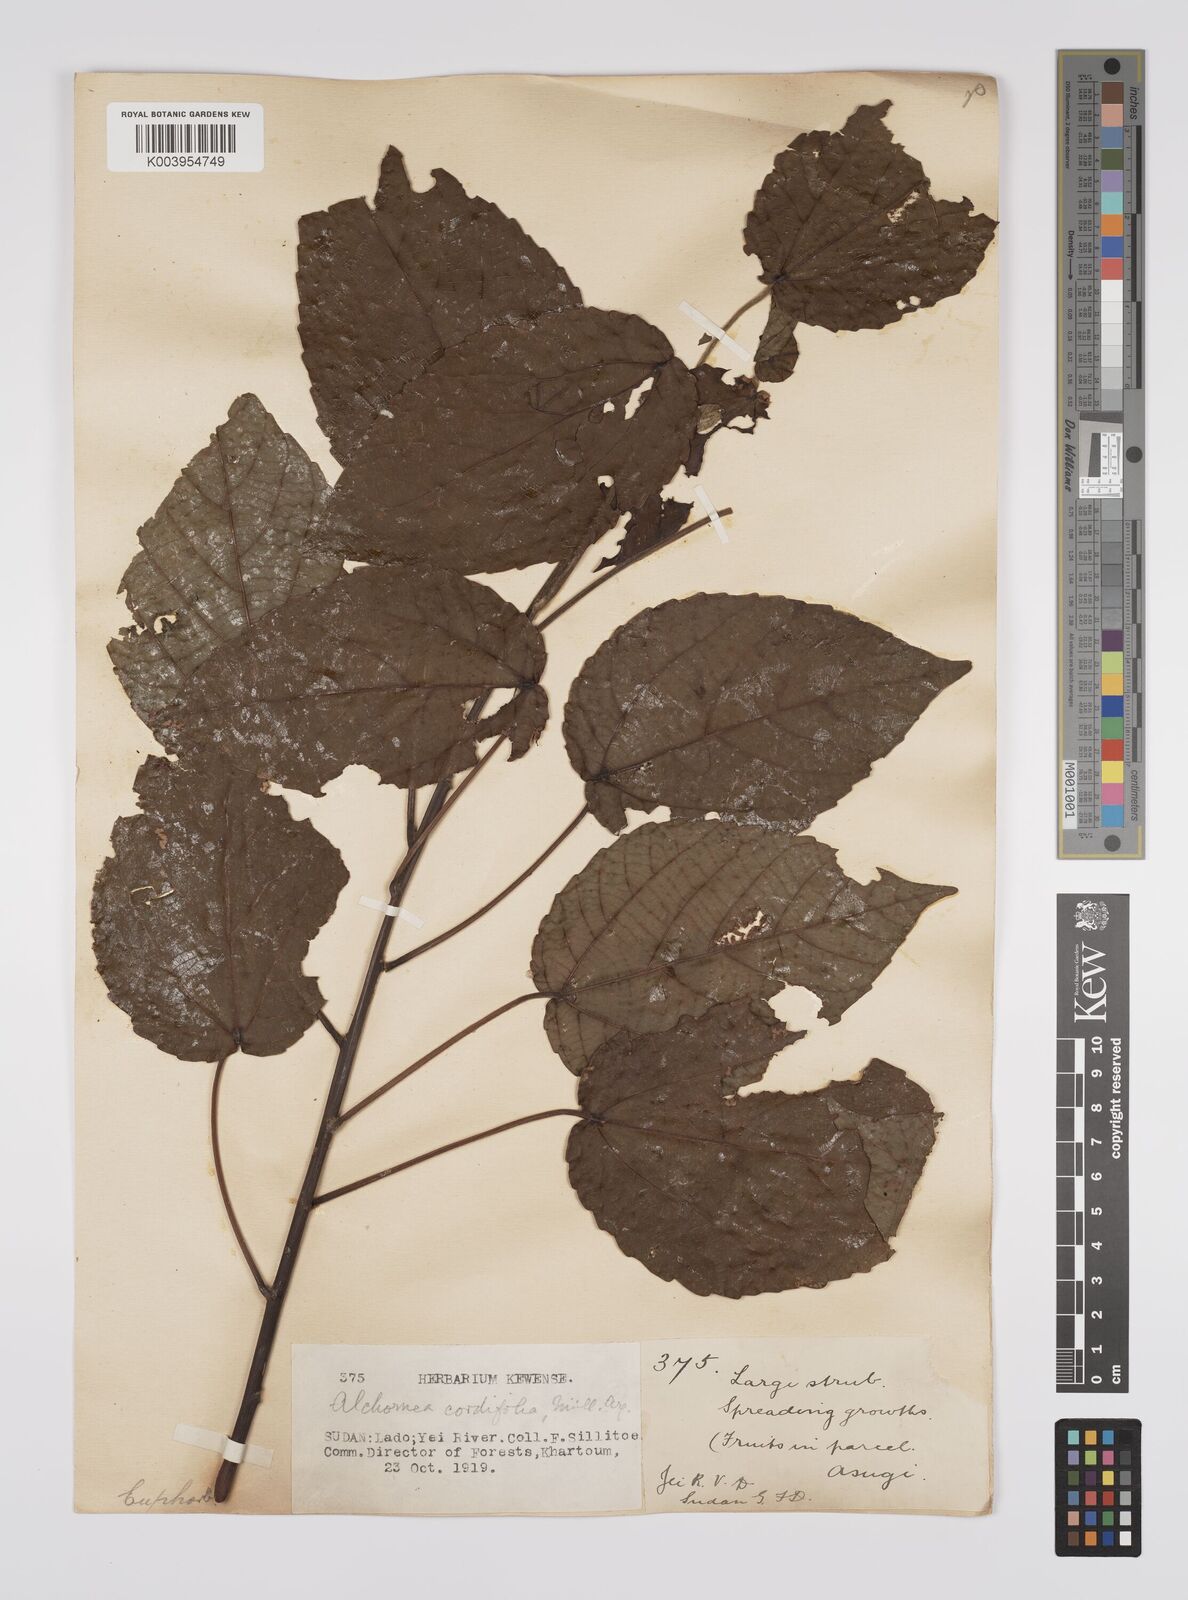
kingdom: Plantae
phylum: Tracheophyta
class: Magnoliopsida
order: Malpighiales
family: Euphorbiaceae
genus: Alchornea
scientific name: Alchornea cordifolia
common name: Christmasbush
